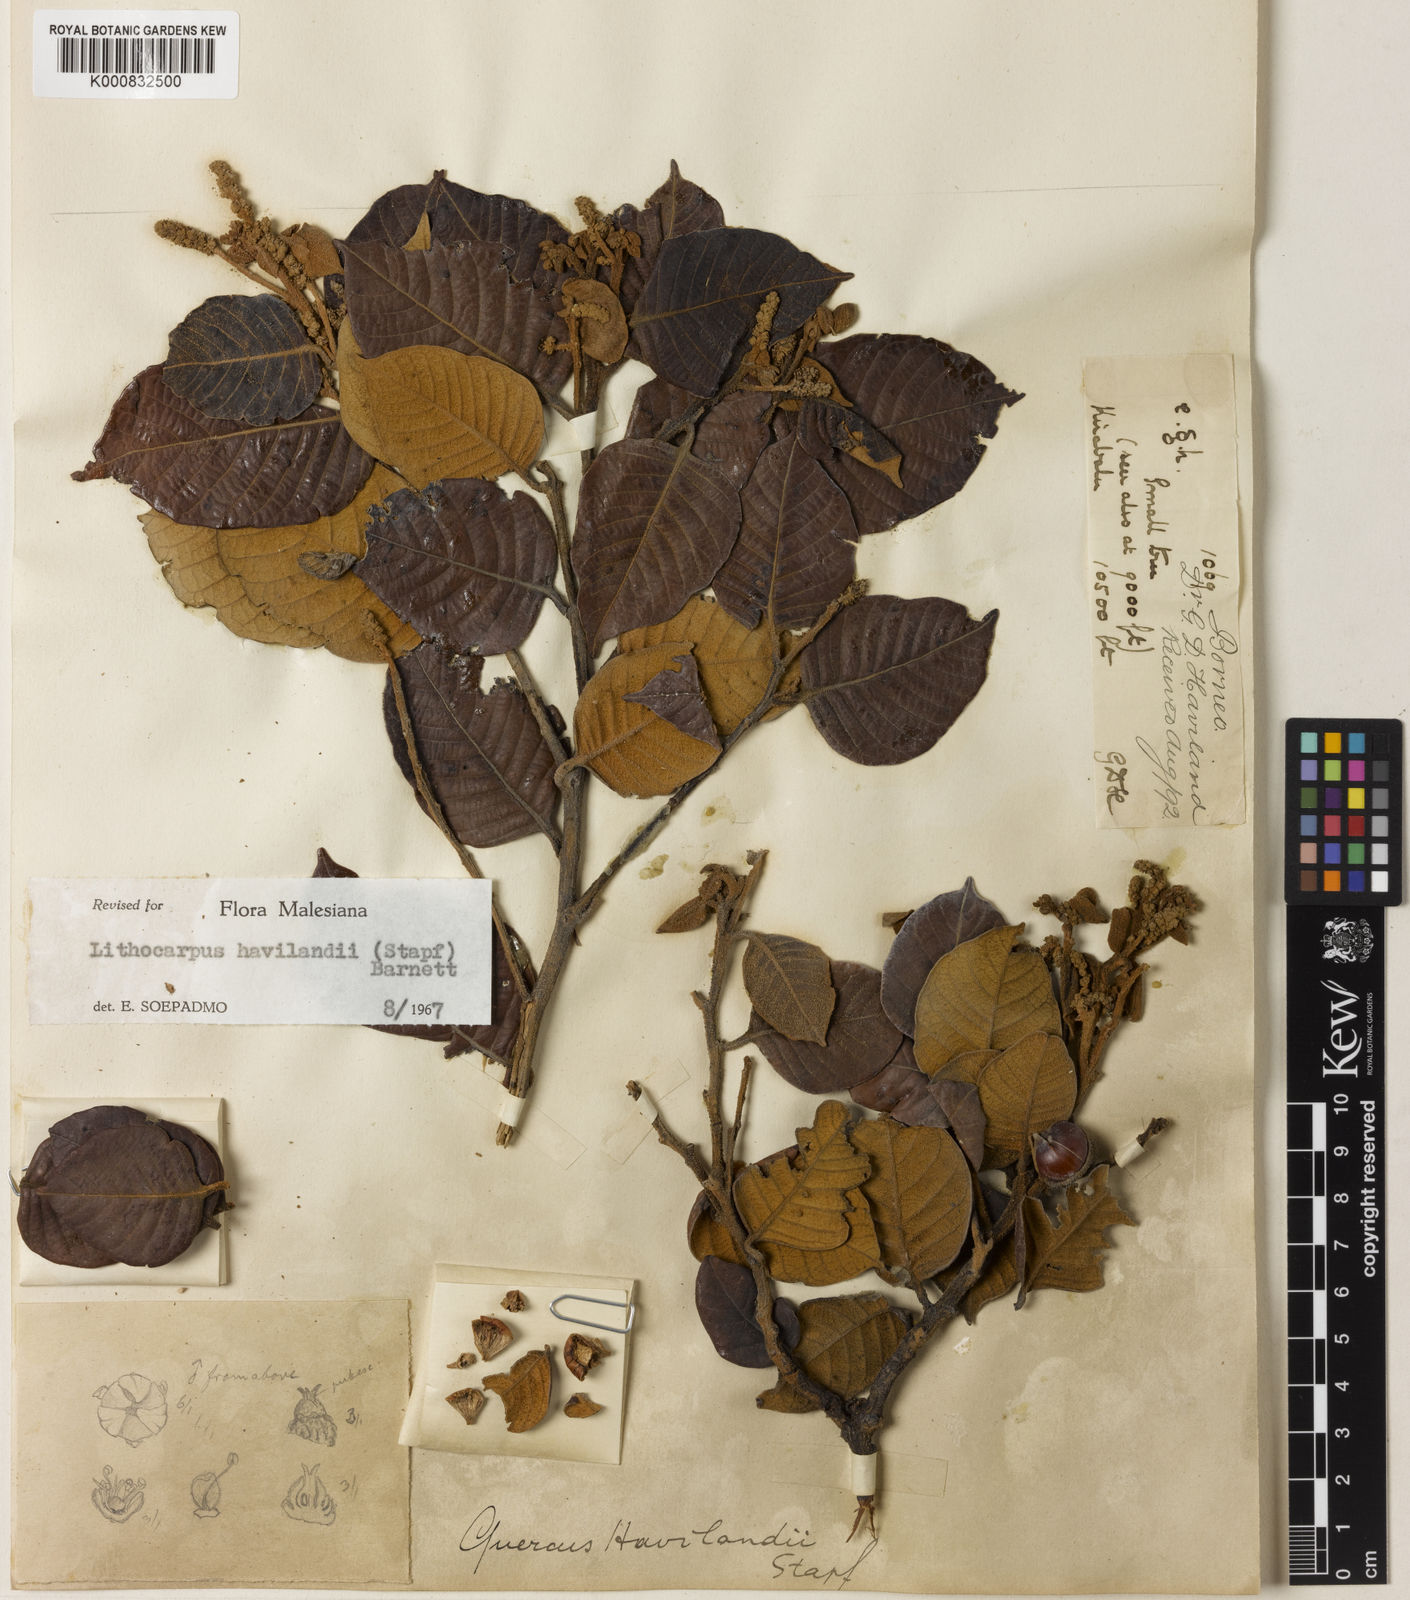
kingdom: Plantae
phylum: Tracheophyta
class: Magnoliopsida
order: Fagales
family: Fagaceae
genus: Lithocarpus
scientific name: Lithocarpus havilandii
